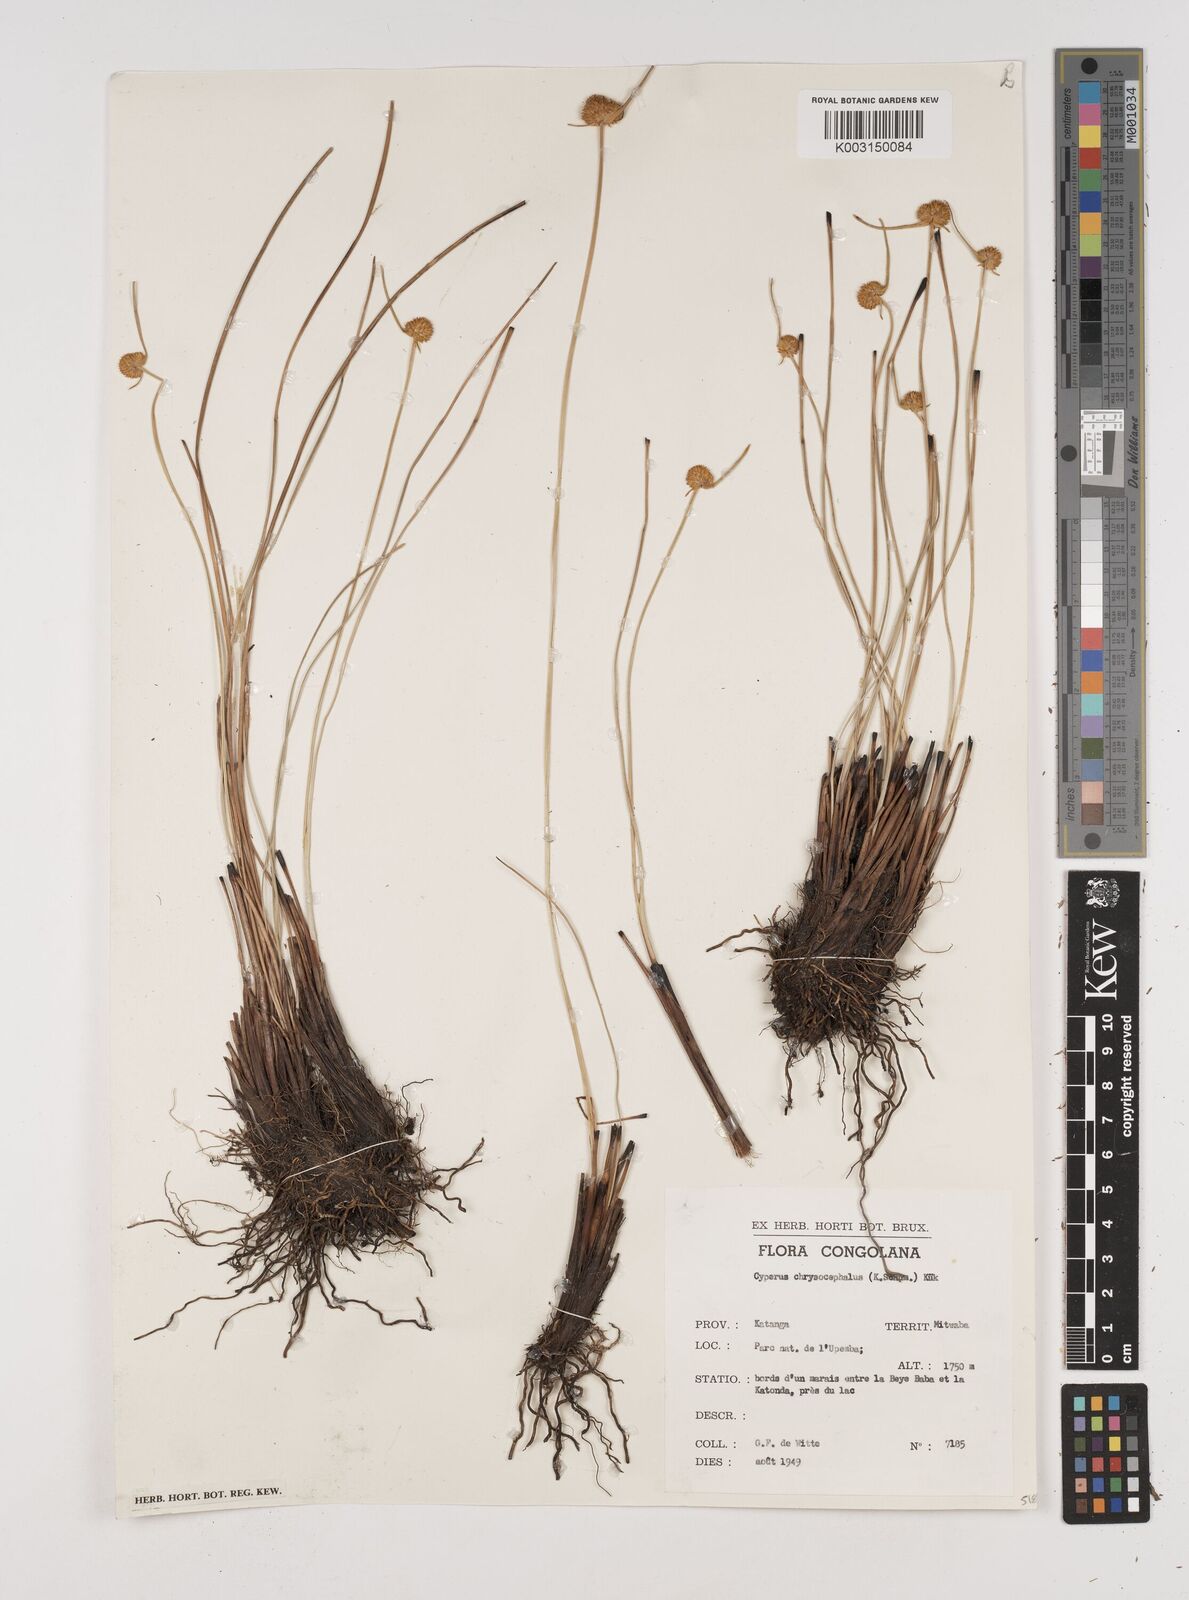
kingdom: Plantae
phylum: Tracheophyta
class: Liliopsida
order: Poales
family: Cyperaceae
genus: Cyperus
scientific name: Cyperus chrysocephalus
